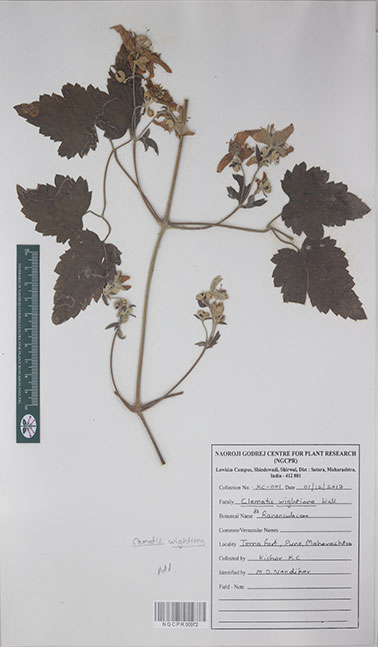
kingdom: Plantae
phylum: Tracheophyta
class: Magnoliopsida
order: Ranunculales
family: Ranunculaceae
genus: Clematis
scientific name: Clematis wightiana
